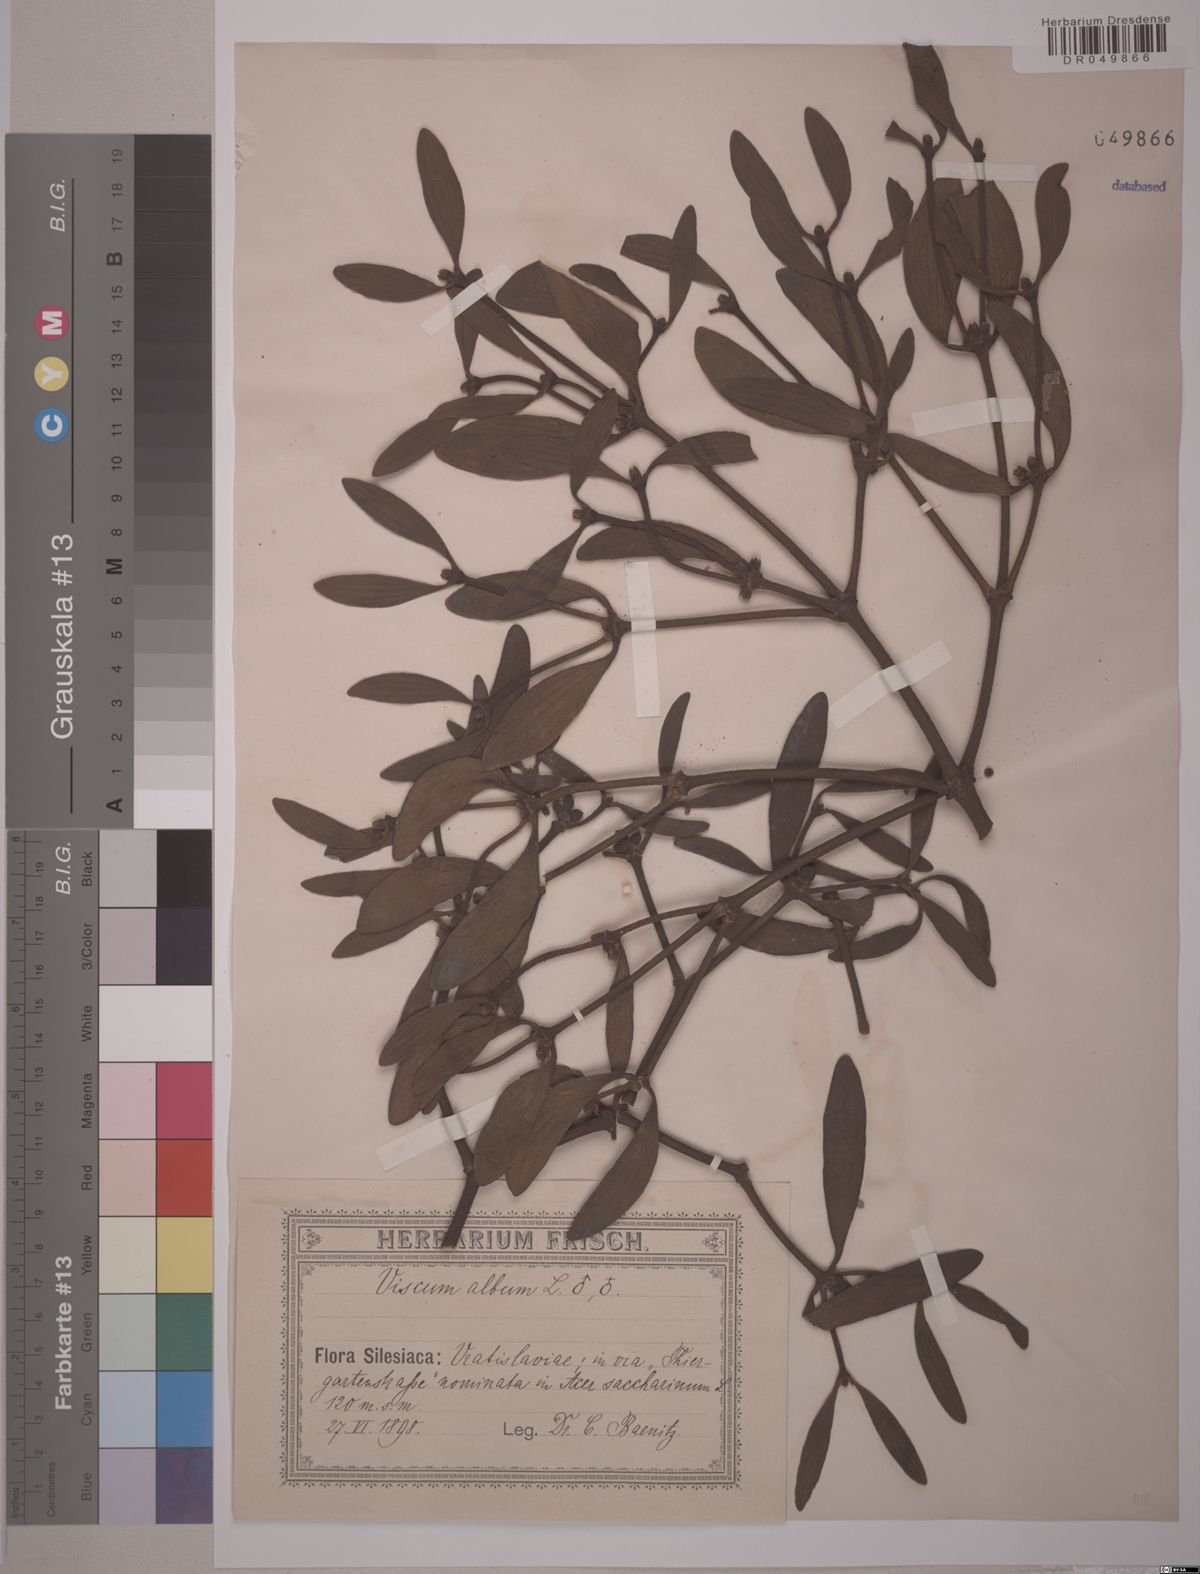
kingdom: Plantae
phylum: Tracheophyta
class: Magnoliopsida
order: Santalales
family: Viscaceae
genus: Viscum
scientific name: Viscum album
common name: Mistletoe
